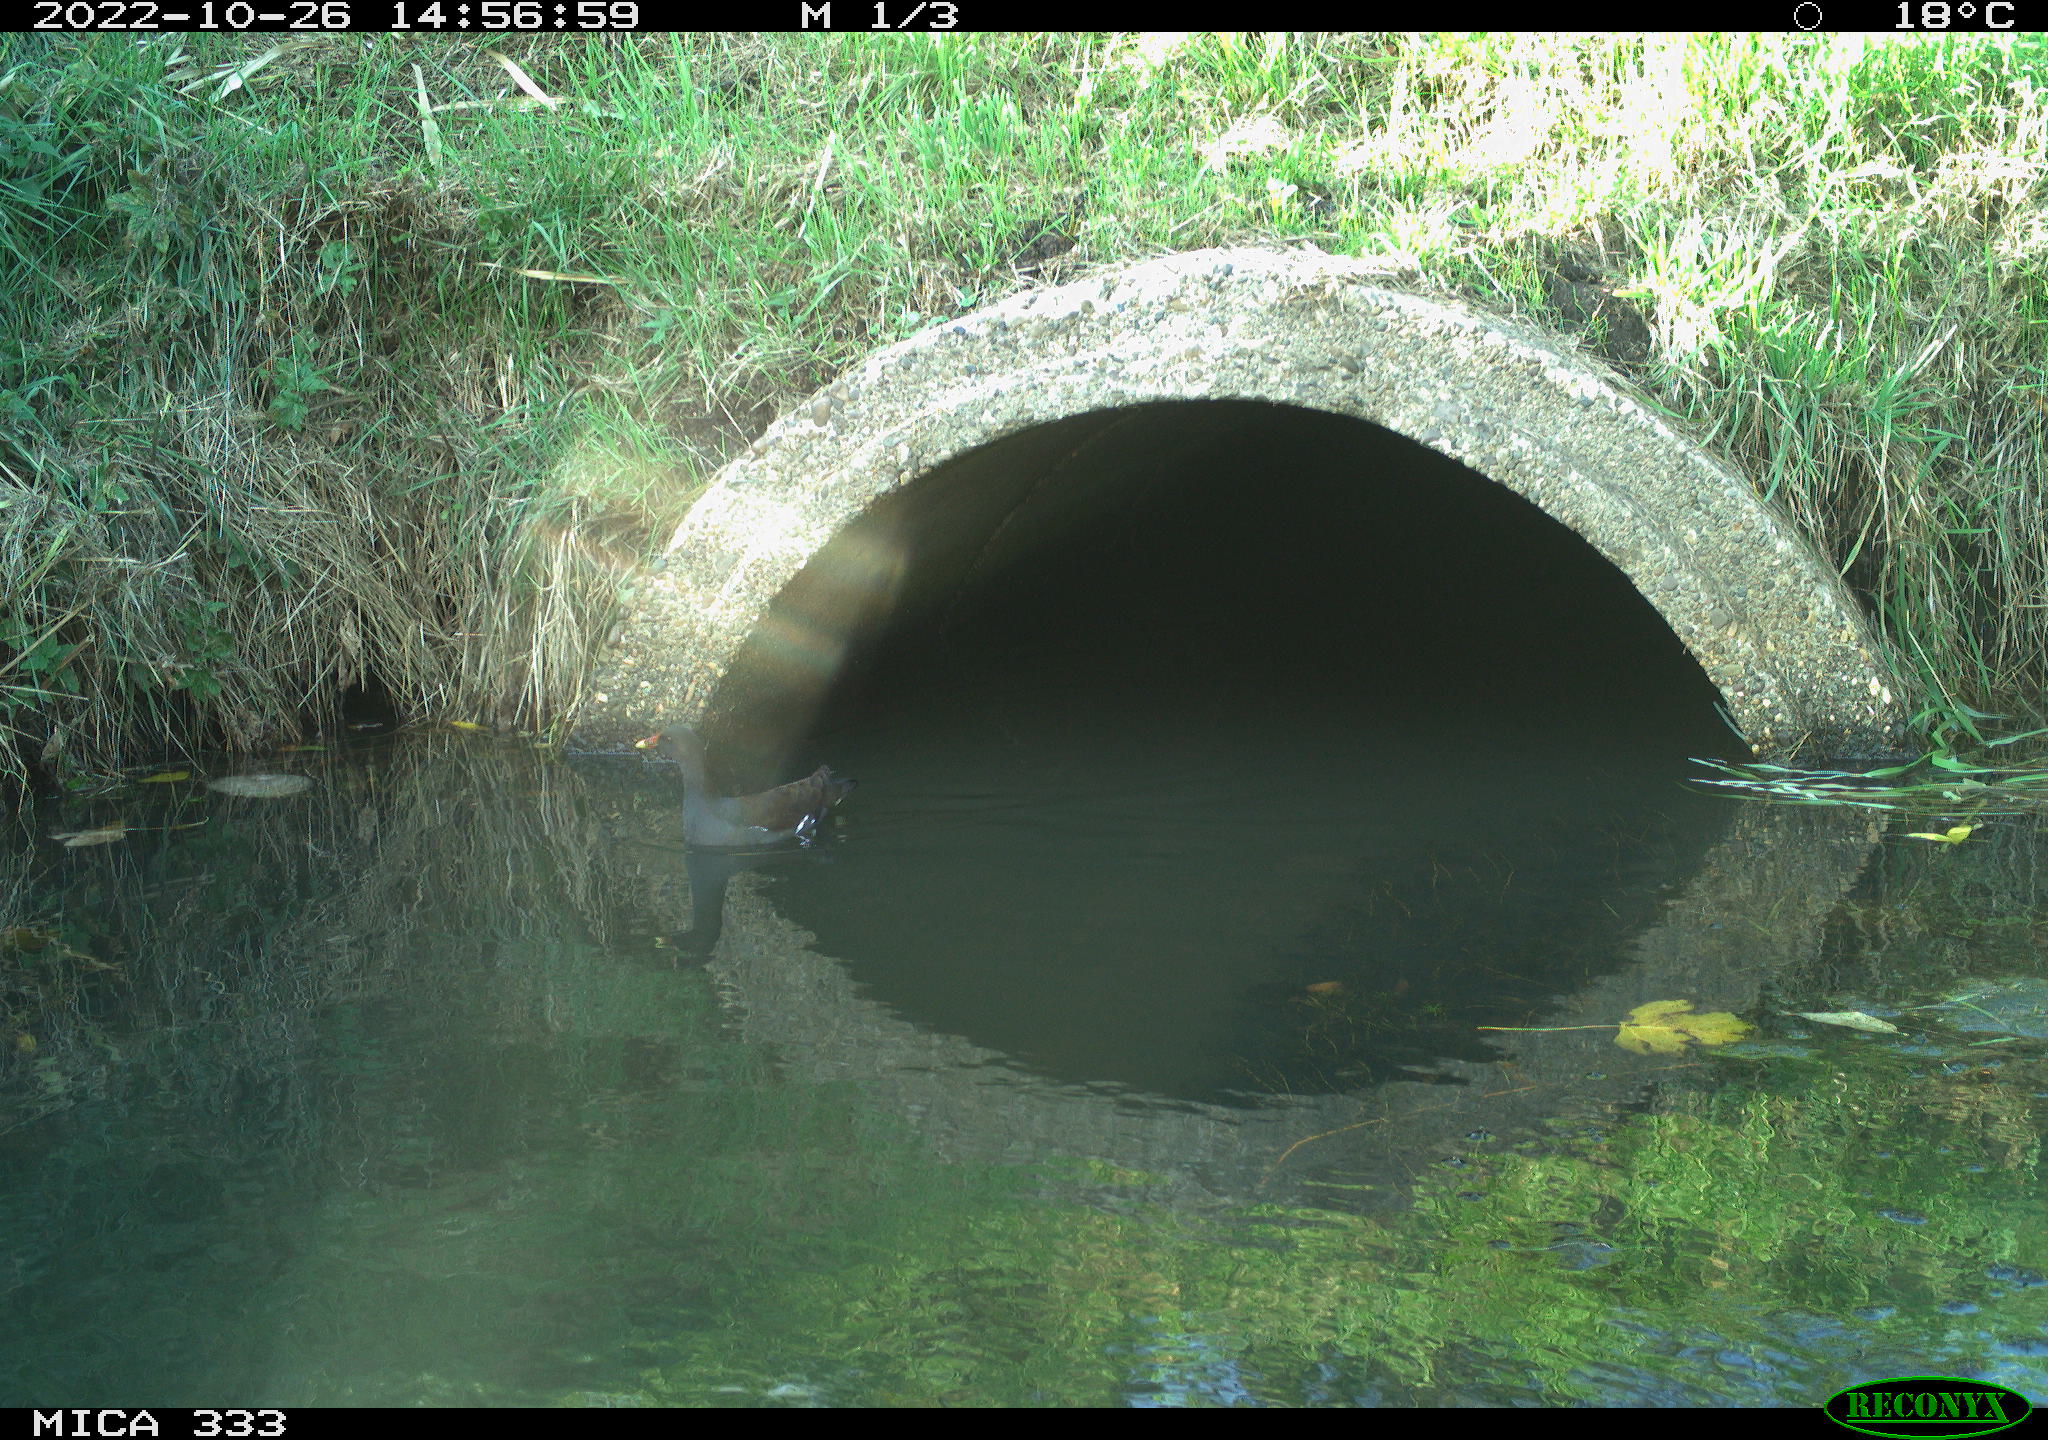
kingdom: Animalia
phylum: Chordata
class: Aves
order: Gruiformes
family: Rallidae
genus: Gallinula
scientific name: Gallinula chloropus
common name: Common moorhen
